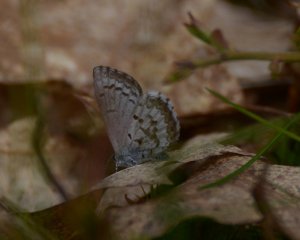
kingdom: Animalia
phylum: Arthropoda
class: Insecta
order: Lepidoptera
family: Lycaenidae
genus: Celastrina
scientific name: Celastrina lucia
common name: Northern Spring Azure
